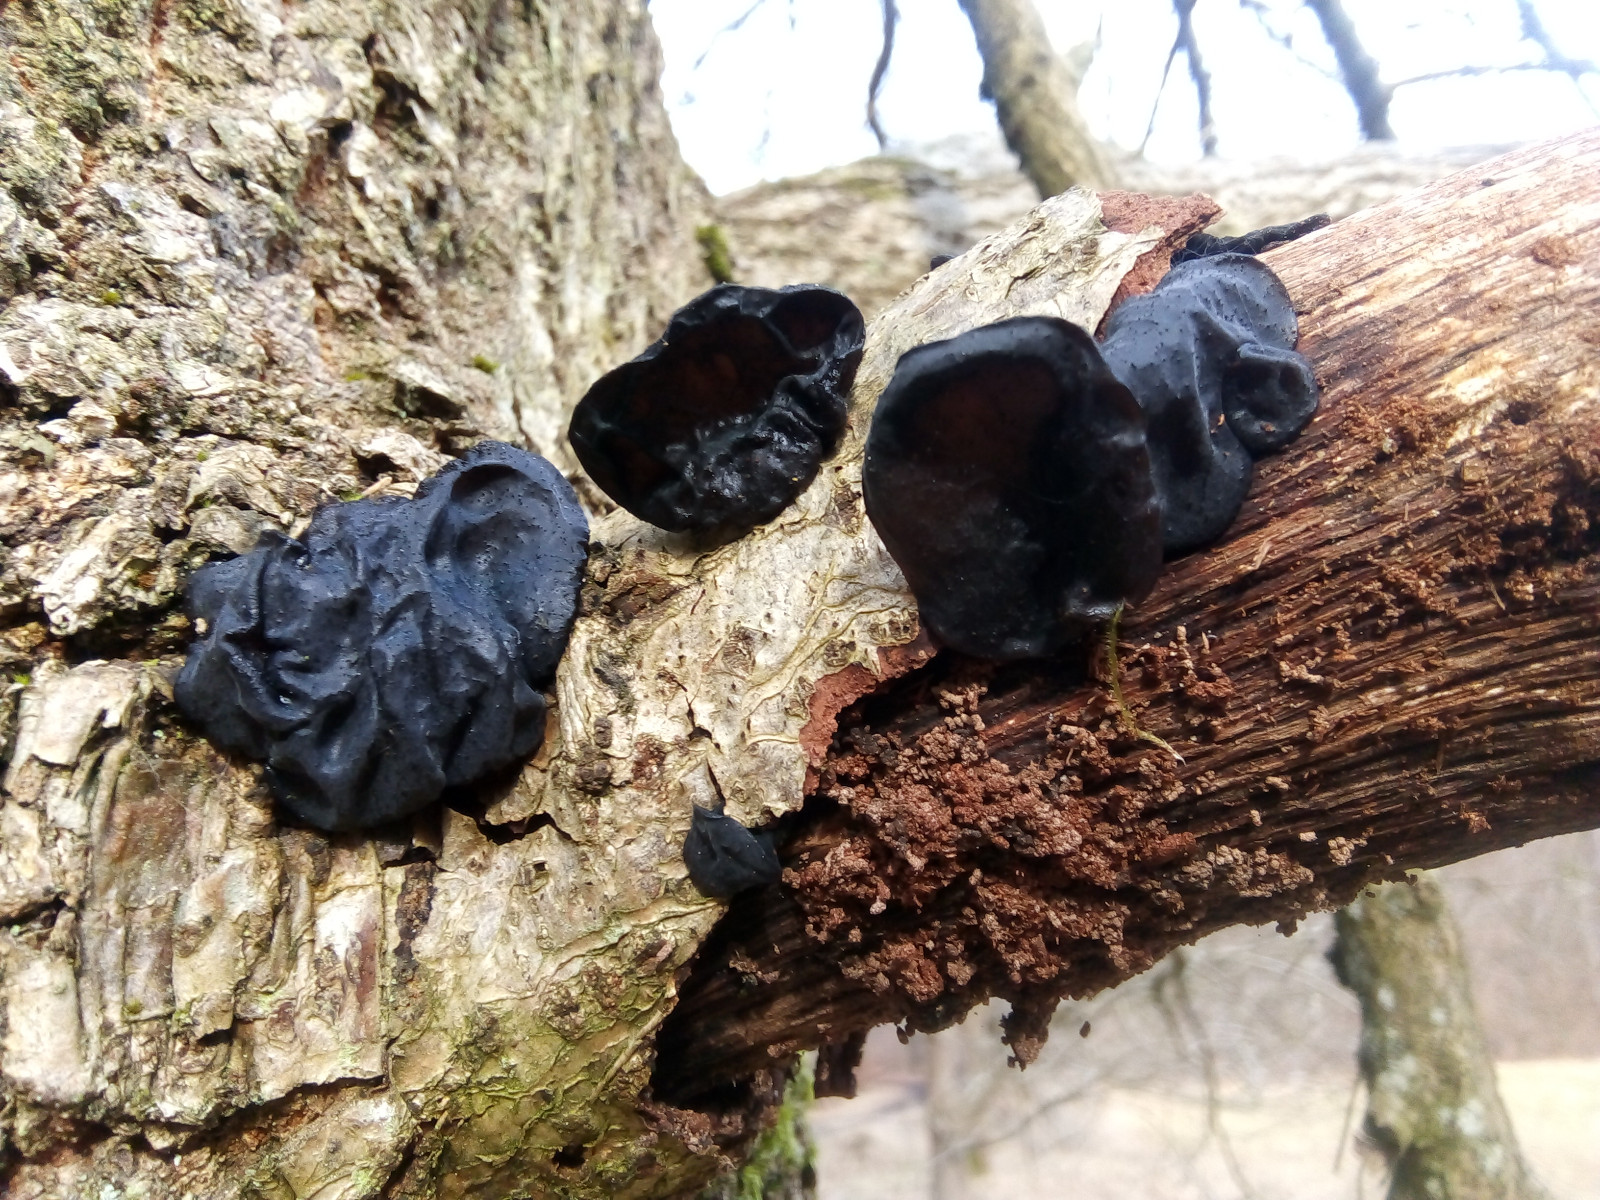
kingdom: Fungi
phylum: Basidiomycota
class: Agaricomycetes
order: Auriculariales
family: Auriculariaceae
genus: Exidia
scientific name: Exidia glandulosa
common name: ege-bævretop
